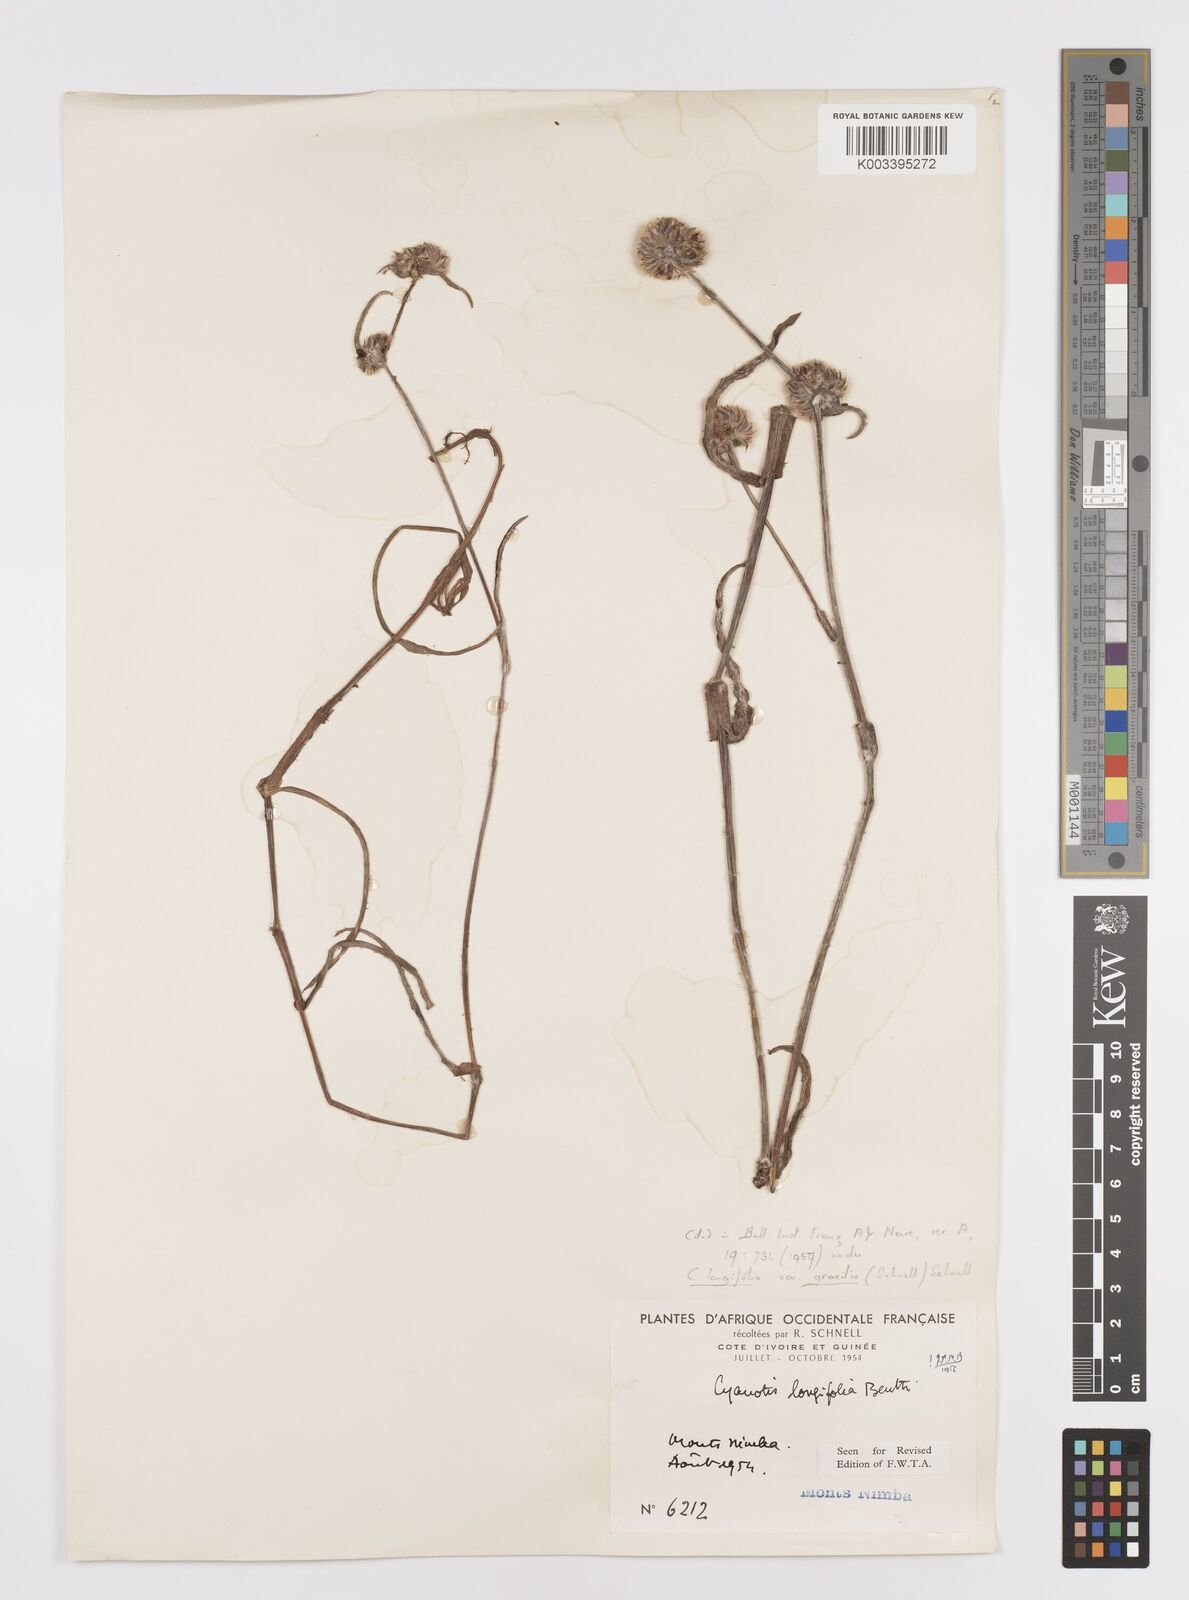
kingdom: Plantae
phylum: Tracheophyta
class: Liliopsida
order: Commelinales
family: Commelinaceae
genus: Cyanotis
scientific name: Cyanotis longifolia
